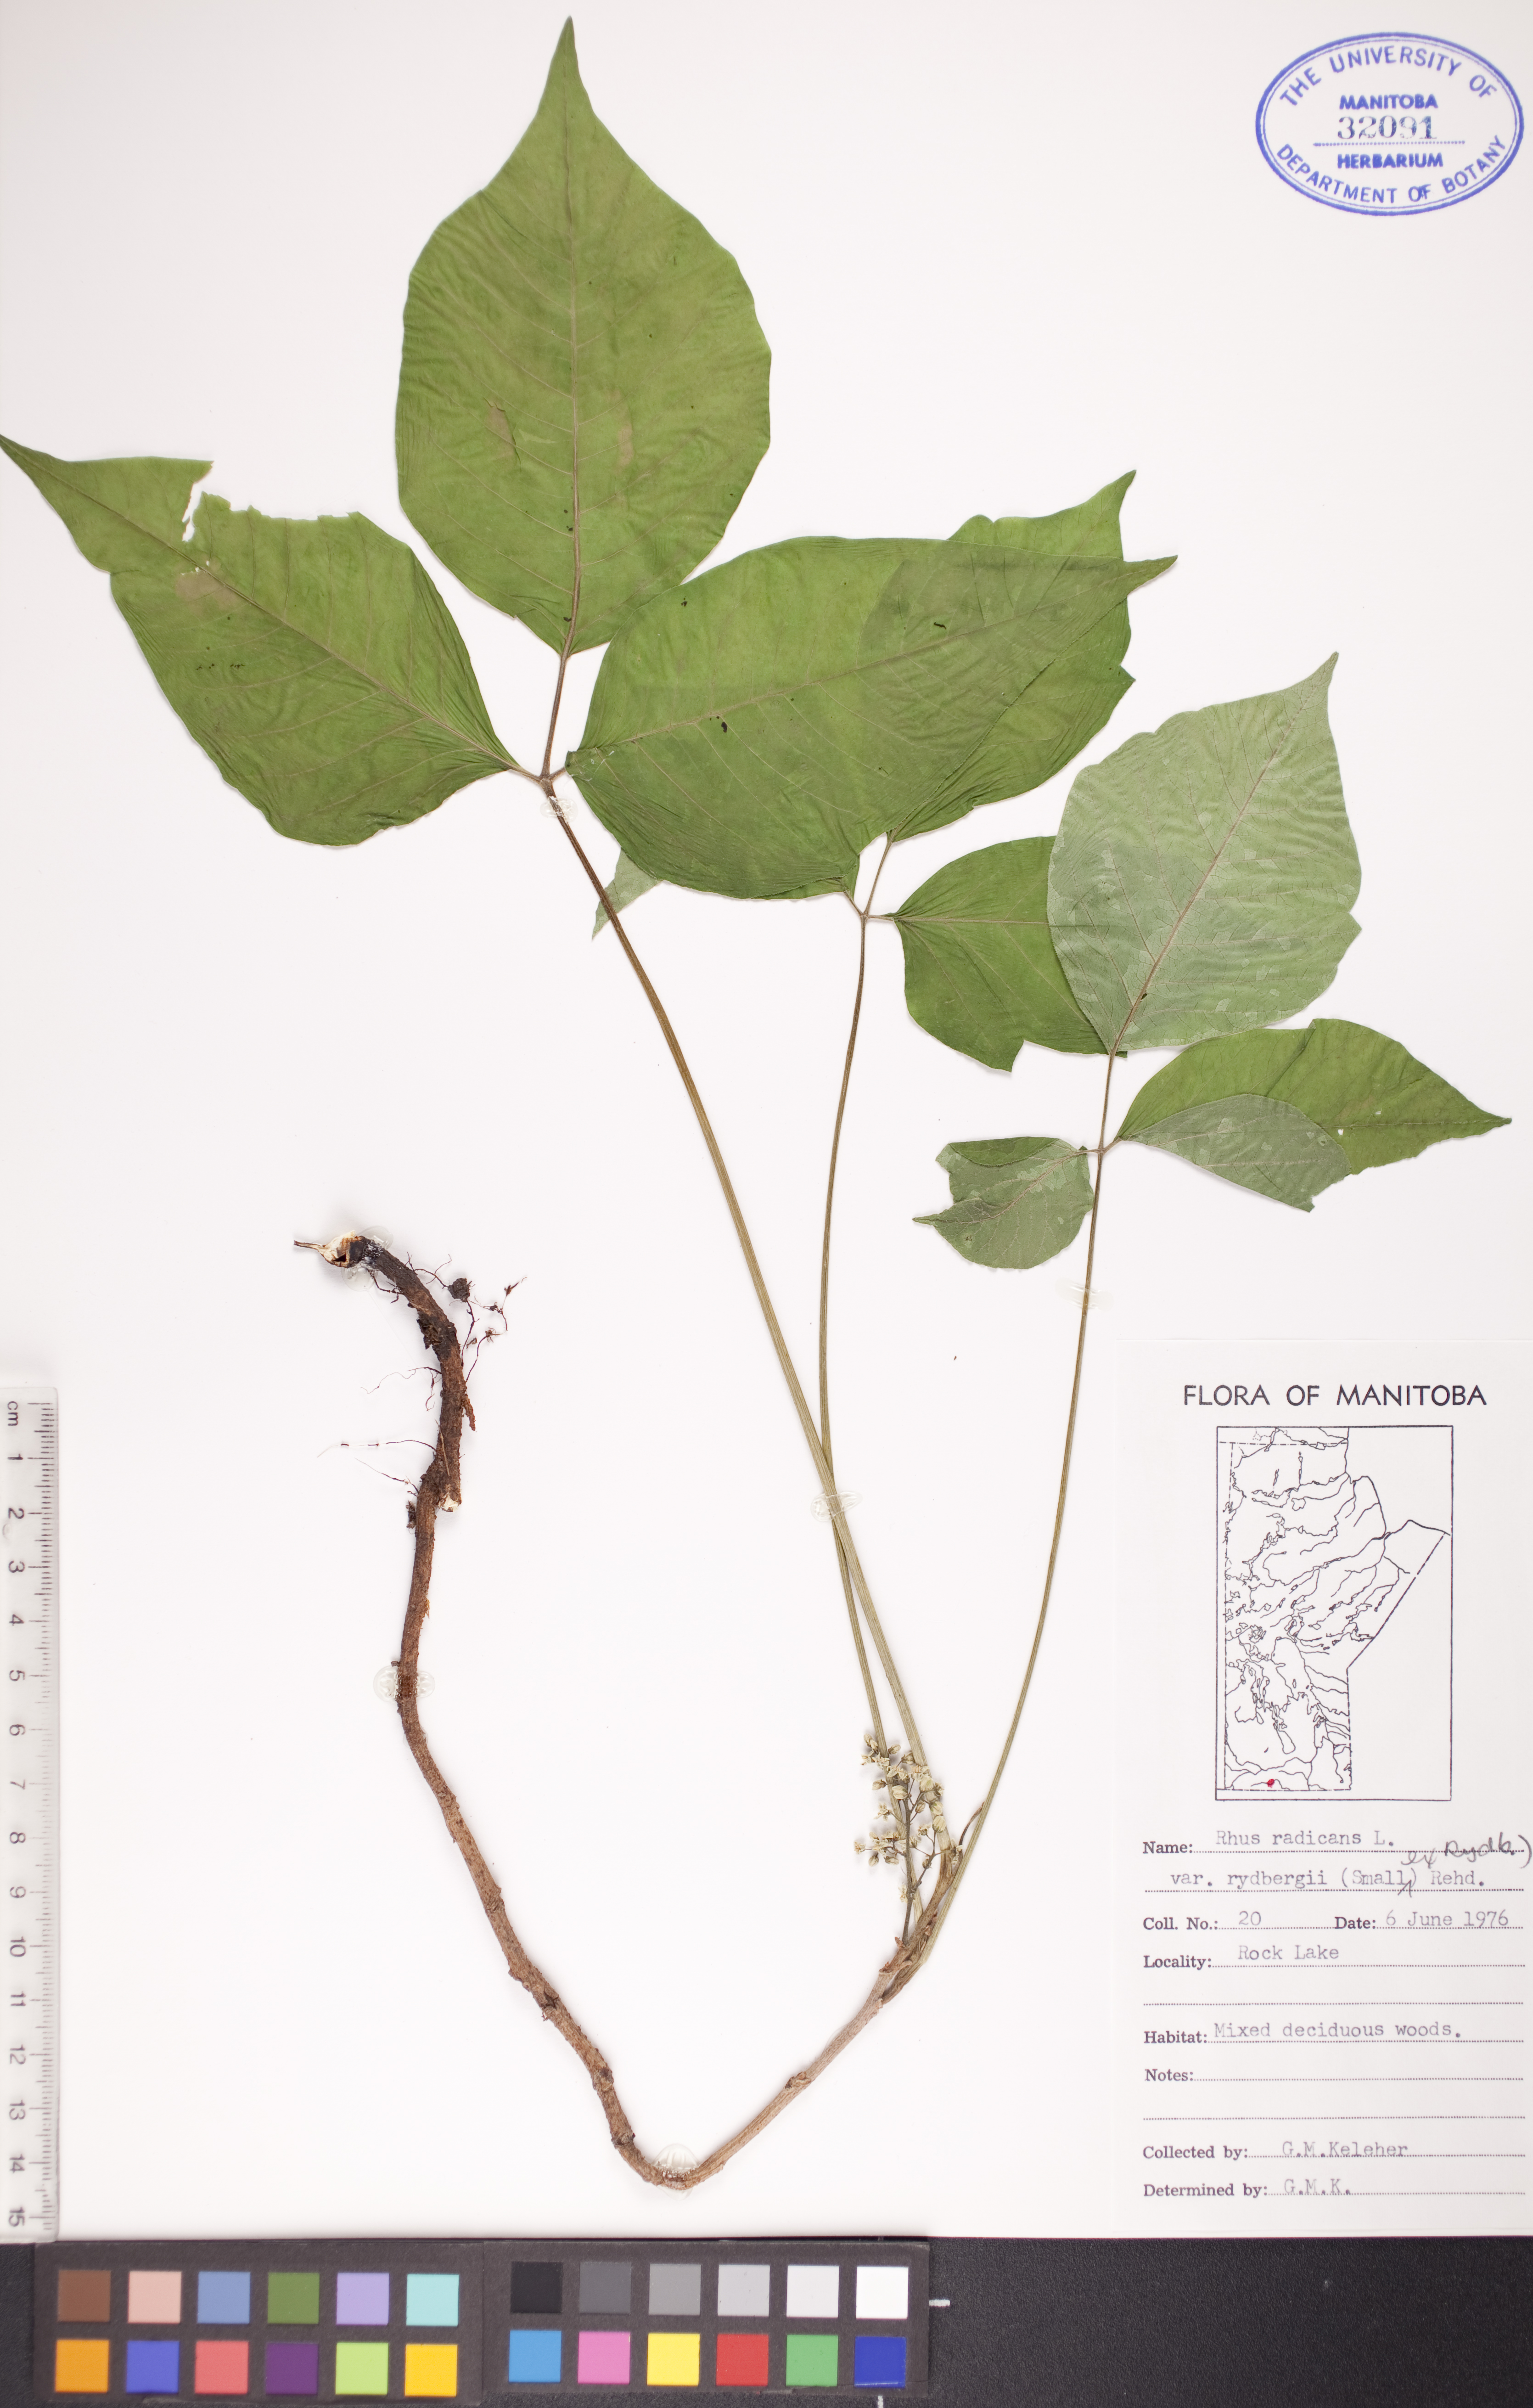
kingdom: Plantae
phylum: Tracheophyta
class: Magnoliopsida
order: Sapindales
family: Anacardiaceae
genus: Toxicodendron
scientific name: Toxicodendron rydbergii
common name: Rydberg's poison-ivy
